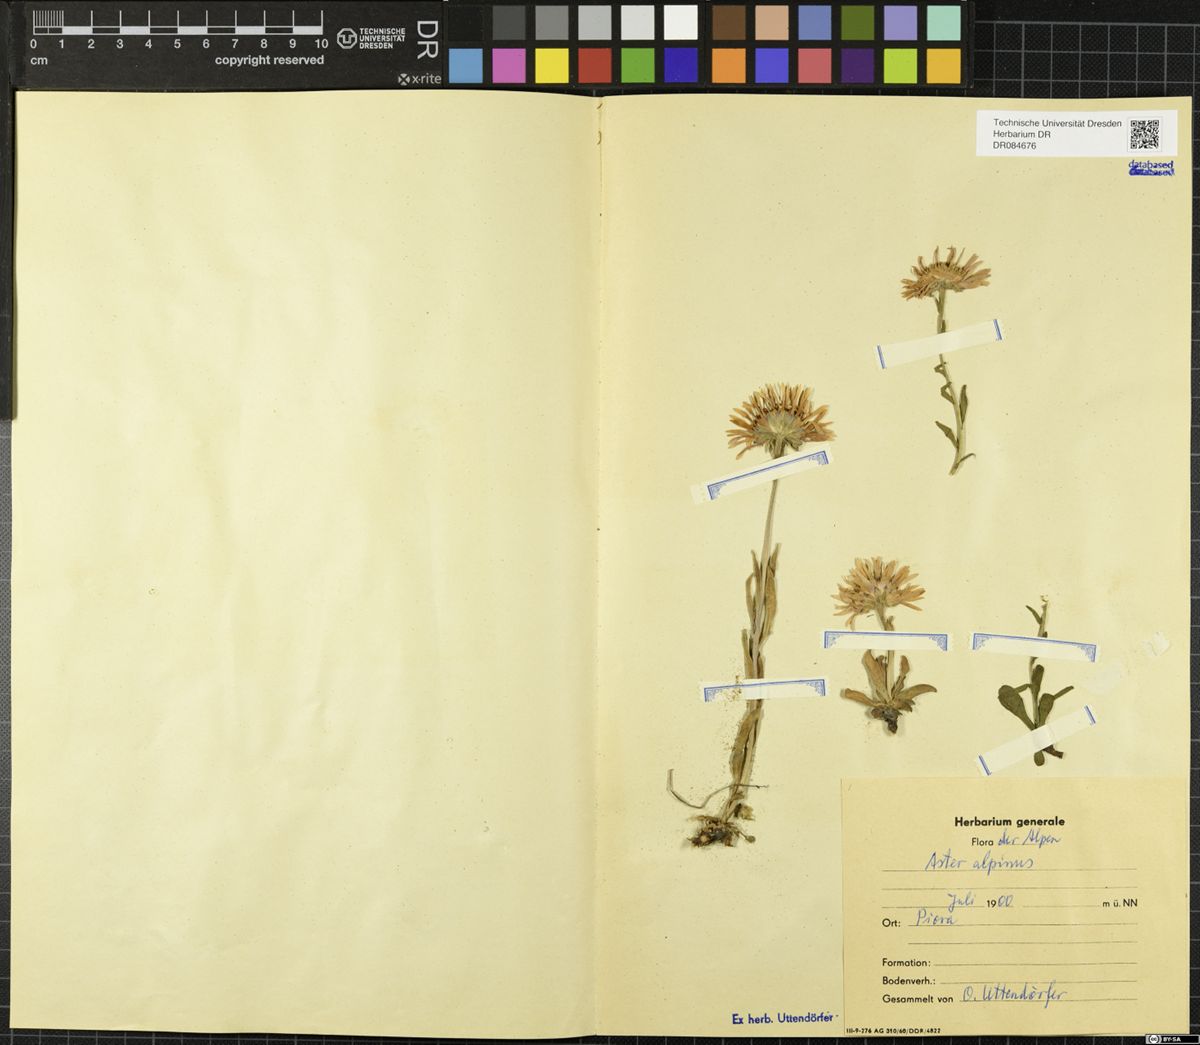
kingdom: Plantae
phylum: Tracheophyta
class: Magnoliopsida
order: Asterales
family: Asteraceae
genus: Aster
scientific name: Aster alpinus
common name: Alpine aster
